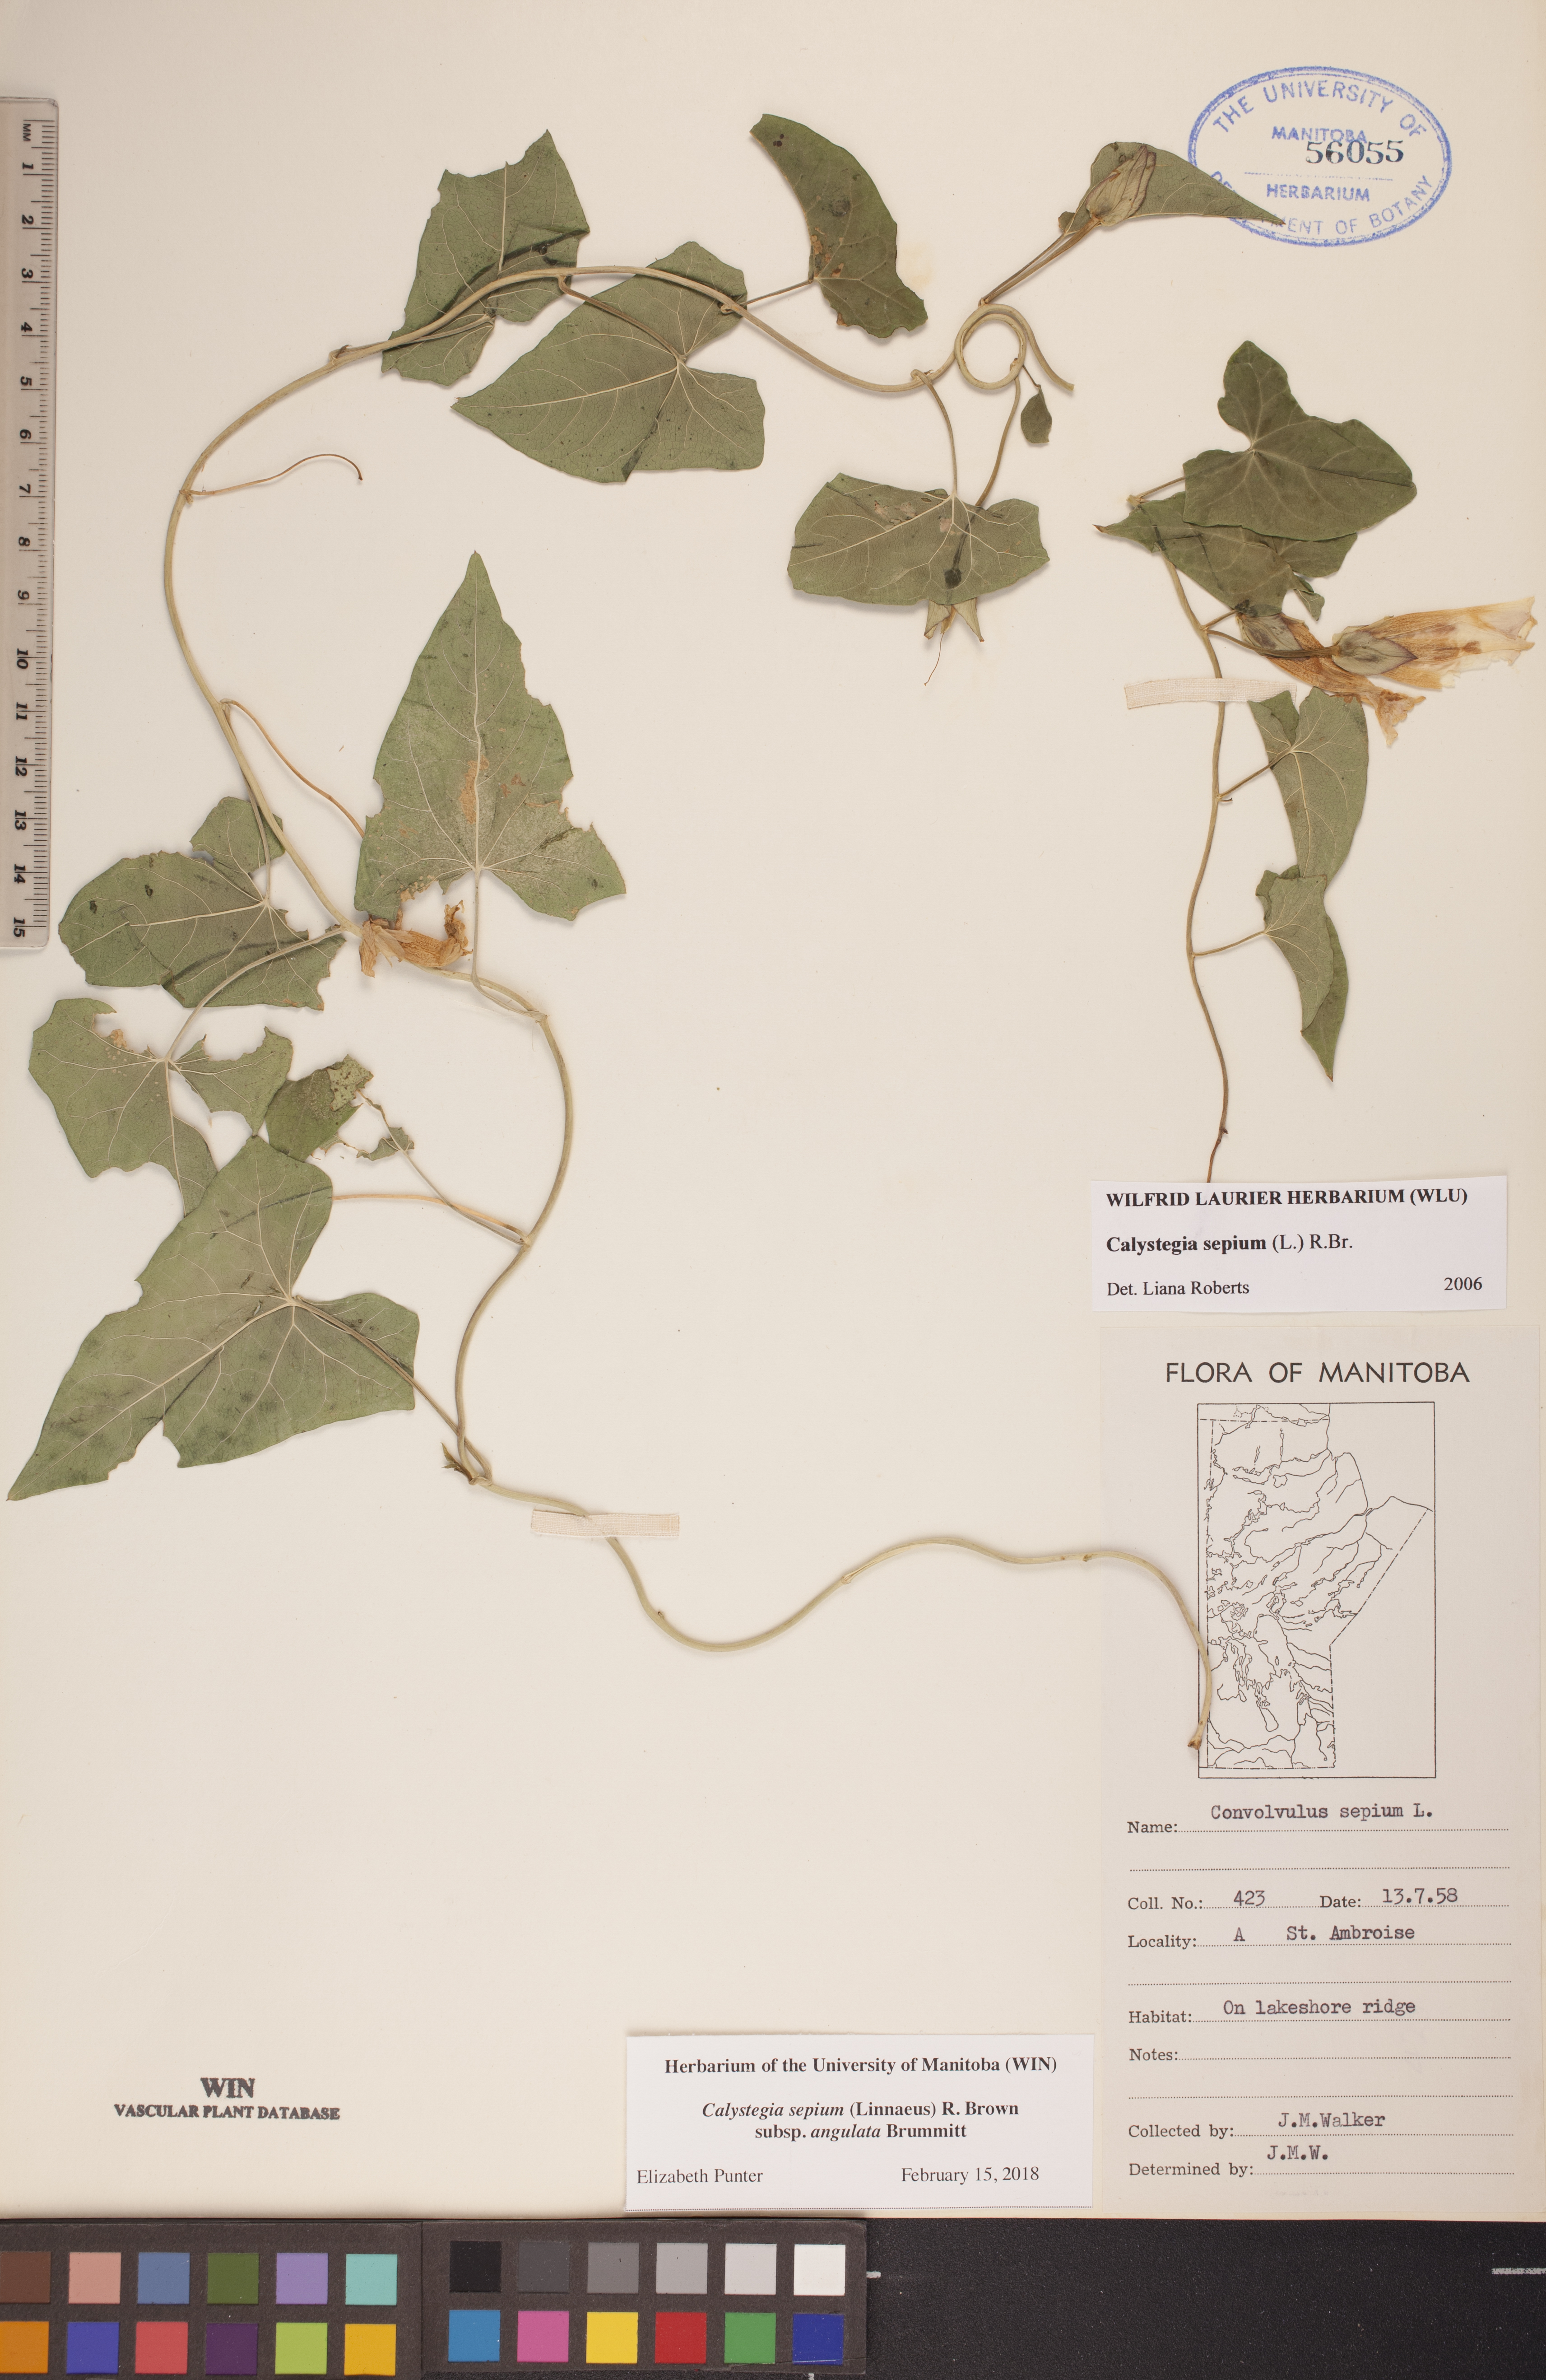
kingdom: Plantae
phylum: Tracheophyta
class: Magnoliopsida
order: Solanales
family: Convolvulaceae
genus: Calystegia
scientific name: Calystegia sepium
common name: Hedge bindweed
